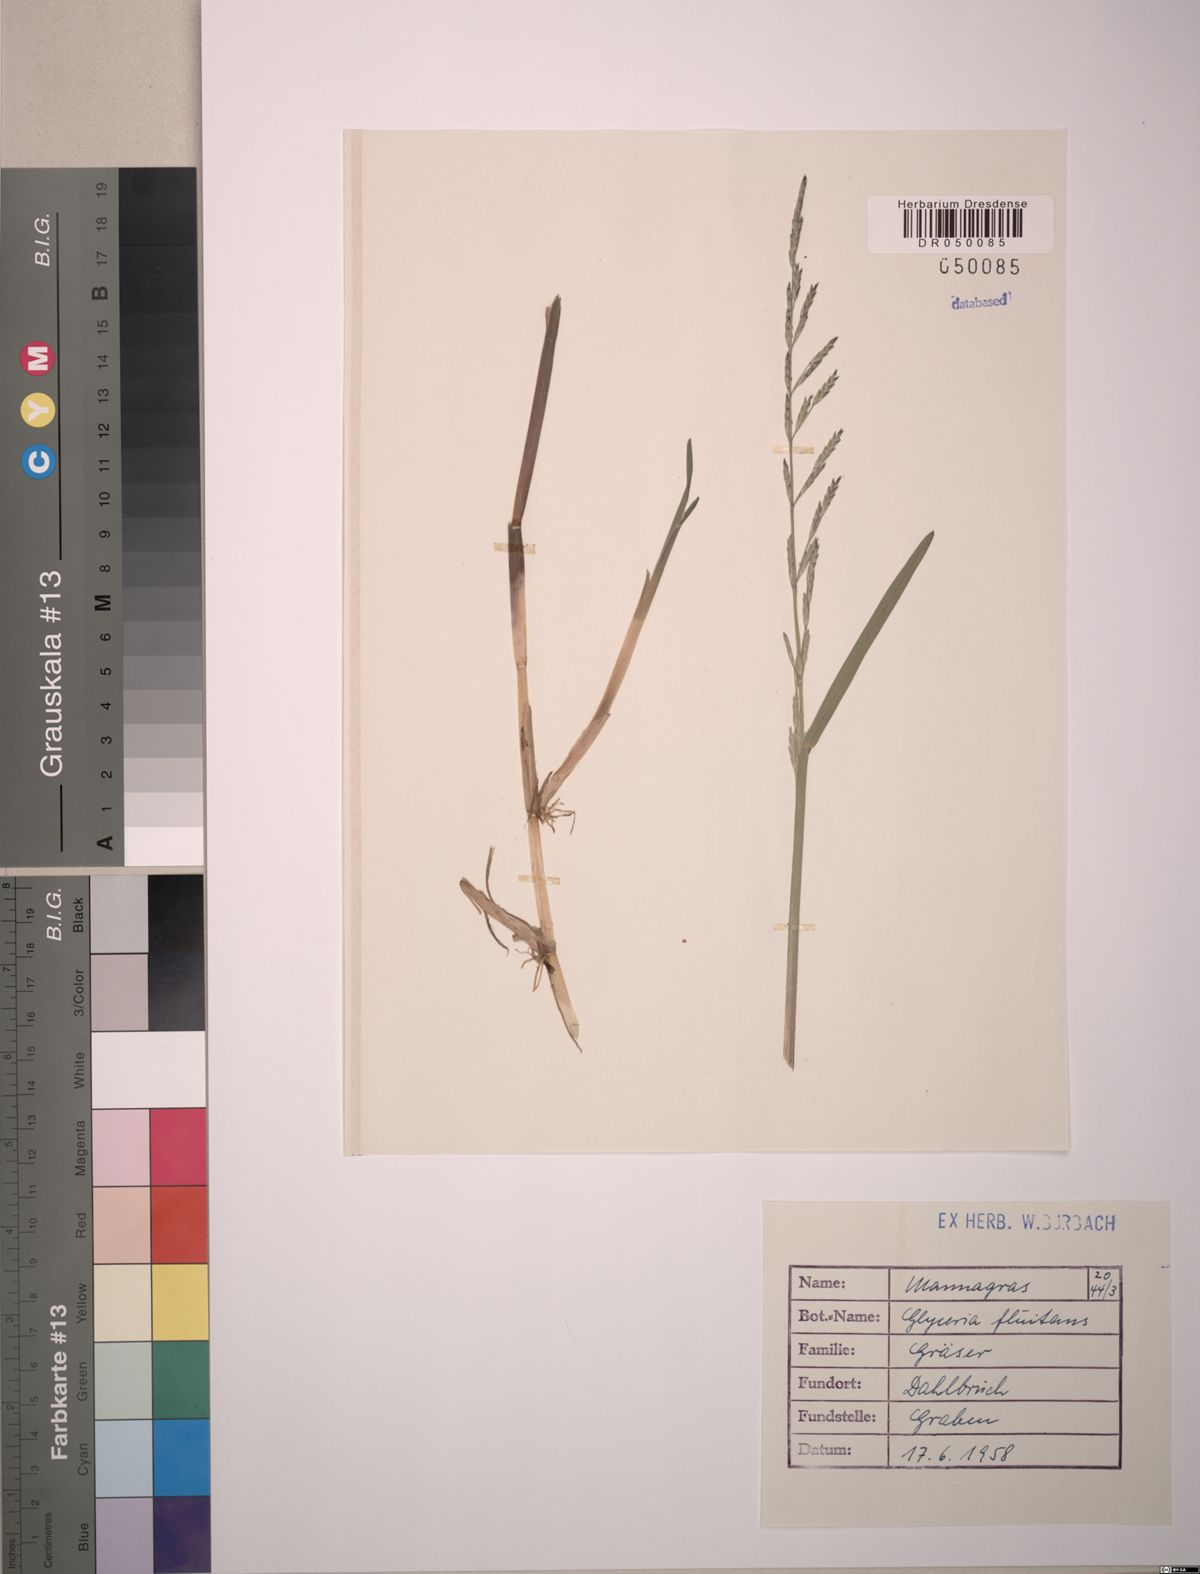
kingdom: Plantae
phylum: Tracheophyta
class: Liliopsida
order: Poales
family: Poaceae
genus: Glyceria
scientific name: Glyceria fluitans
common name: Floating sweet-grass
